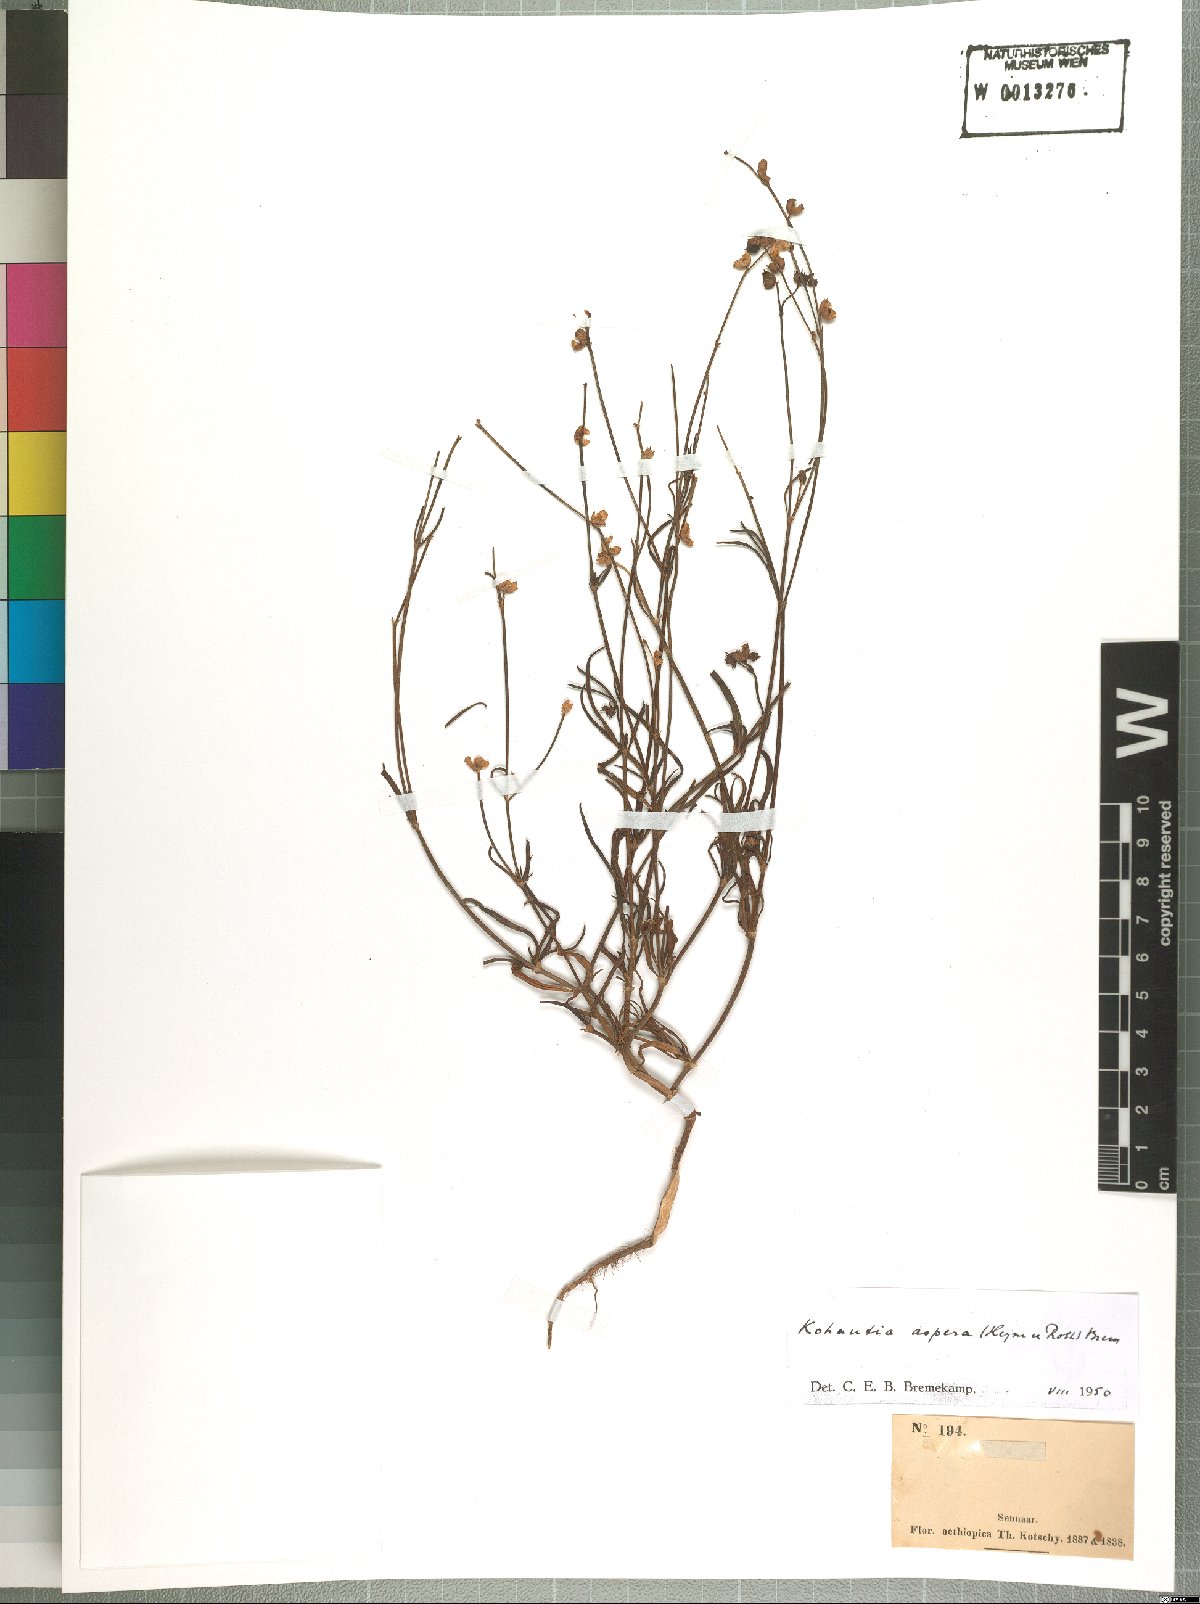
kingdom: Plantae
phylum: Tracheophyta
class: Magnoliopsida
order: Gentianales
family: Rubiaceae
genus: Kohautia
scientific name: Kohautia aspera
